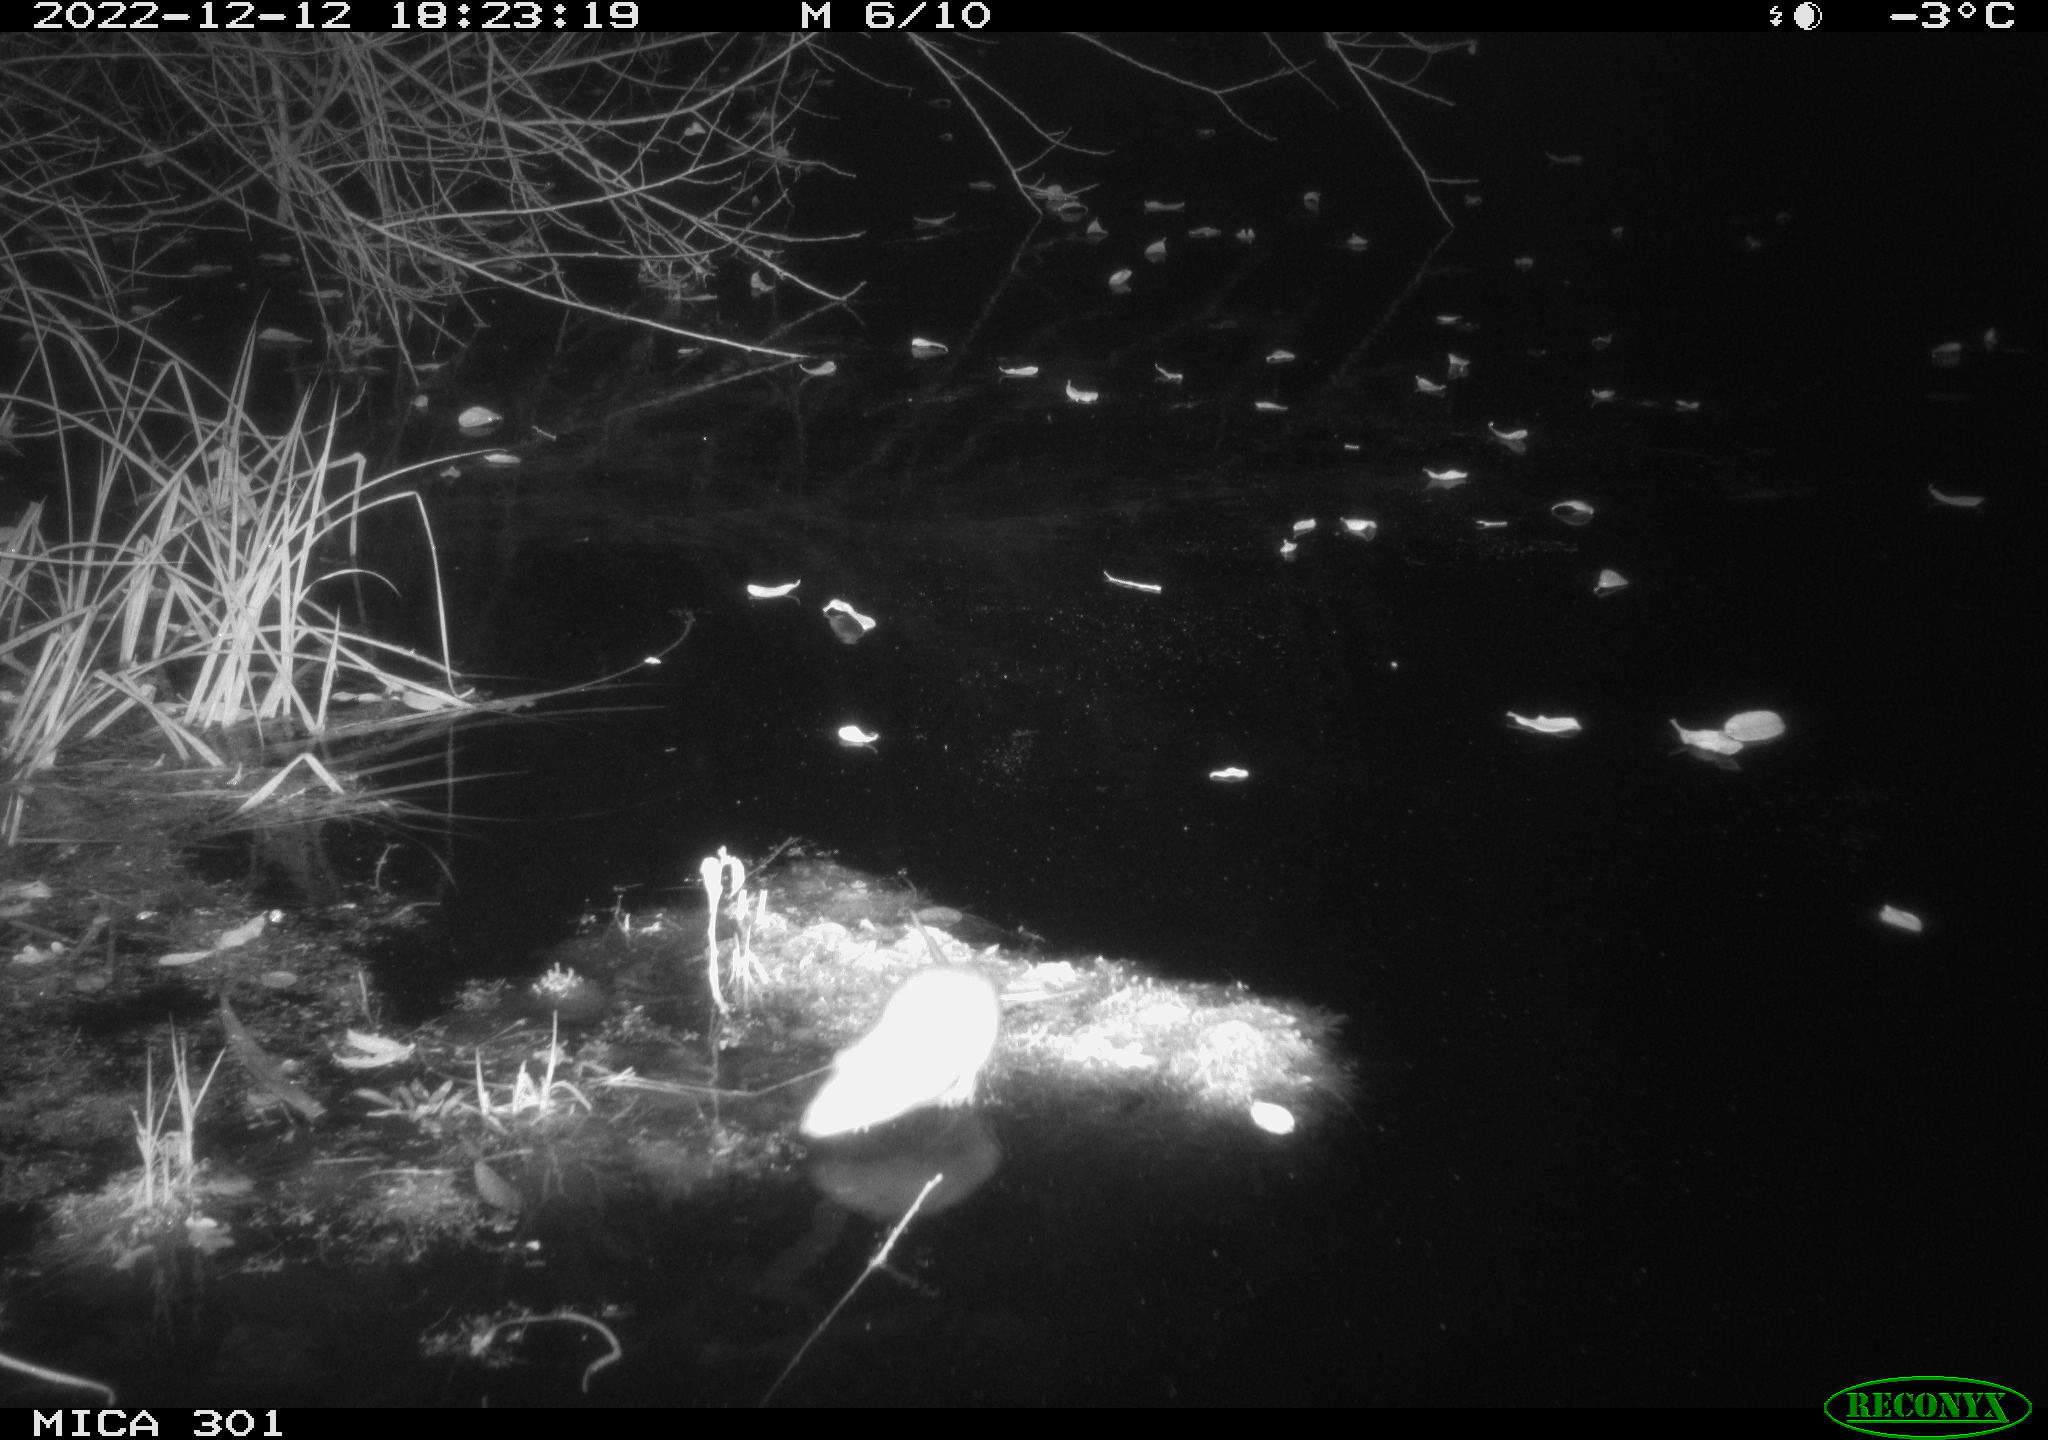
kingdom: Animalia
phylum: Chordata
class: Mammalia
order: Rodentia
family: Muridae
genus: Rattus
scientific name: Rattus norvegicus
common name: Brown rat
